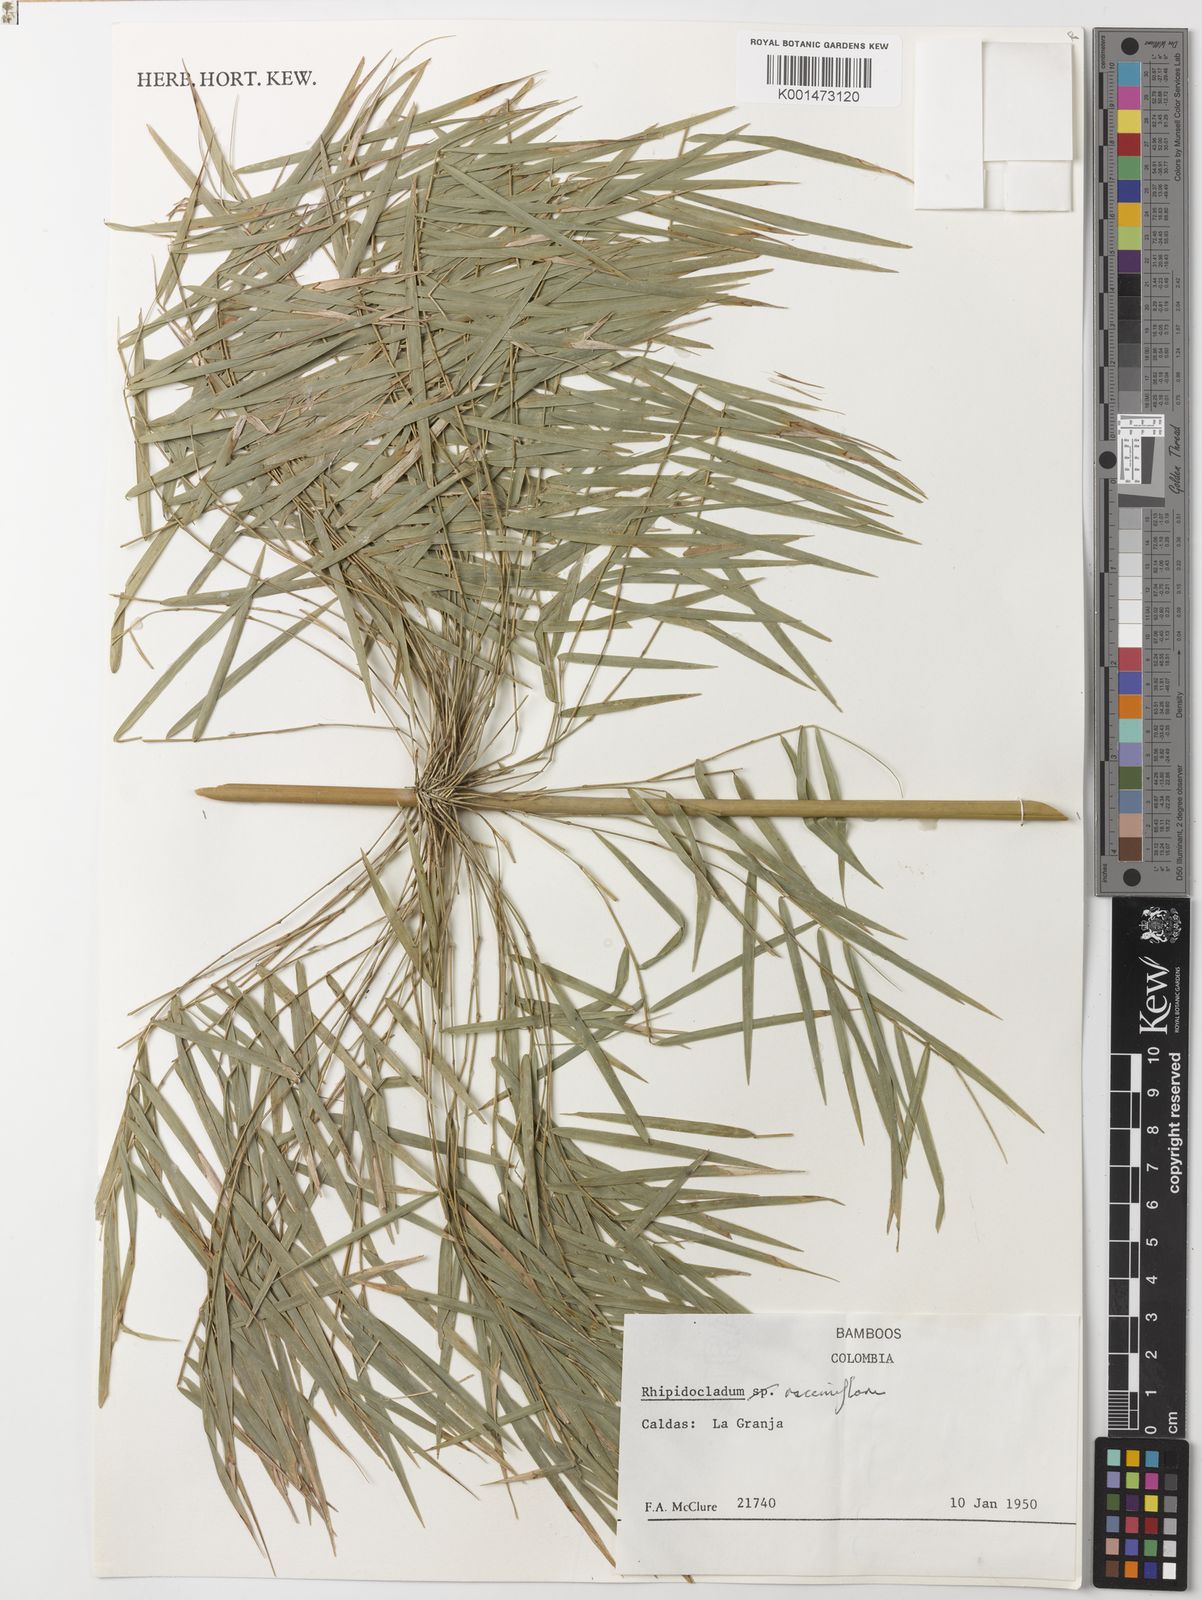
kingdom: Plantae
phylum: Tracheophyta
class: Liliopsida
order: Poales
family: Poaceae
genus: Rhipidocladum
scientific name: Rhipidocladum racemiflorum
